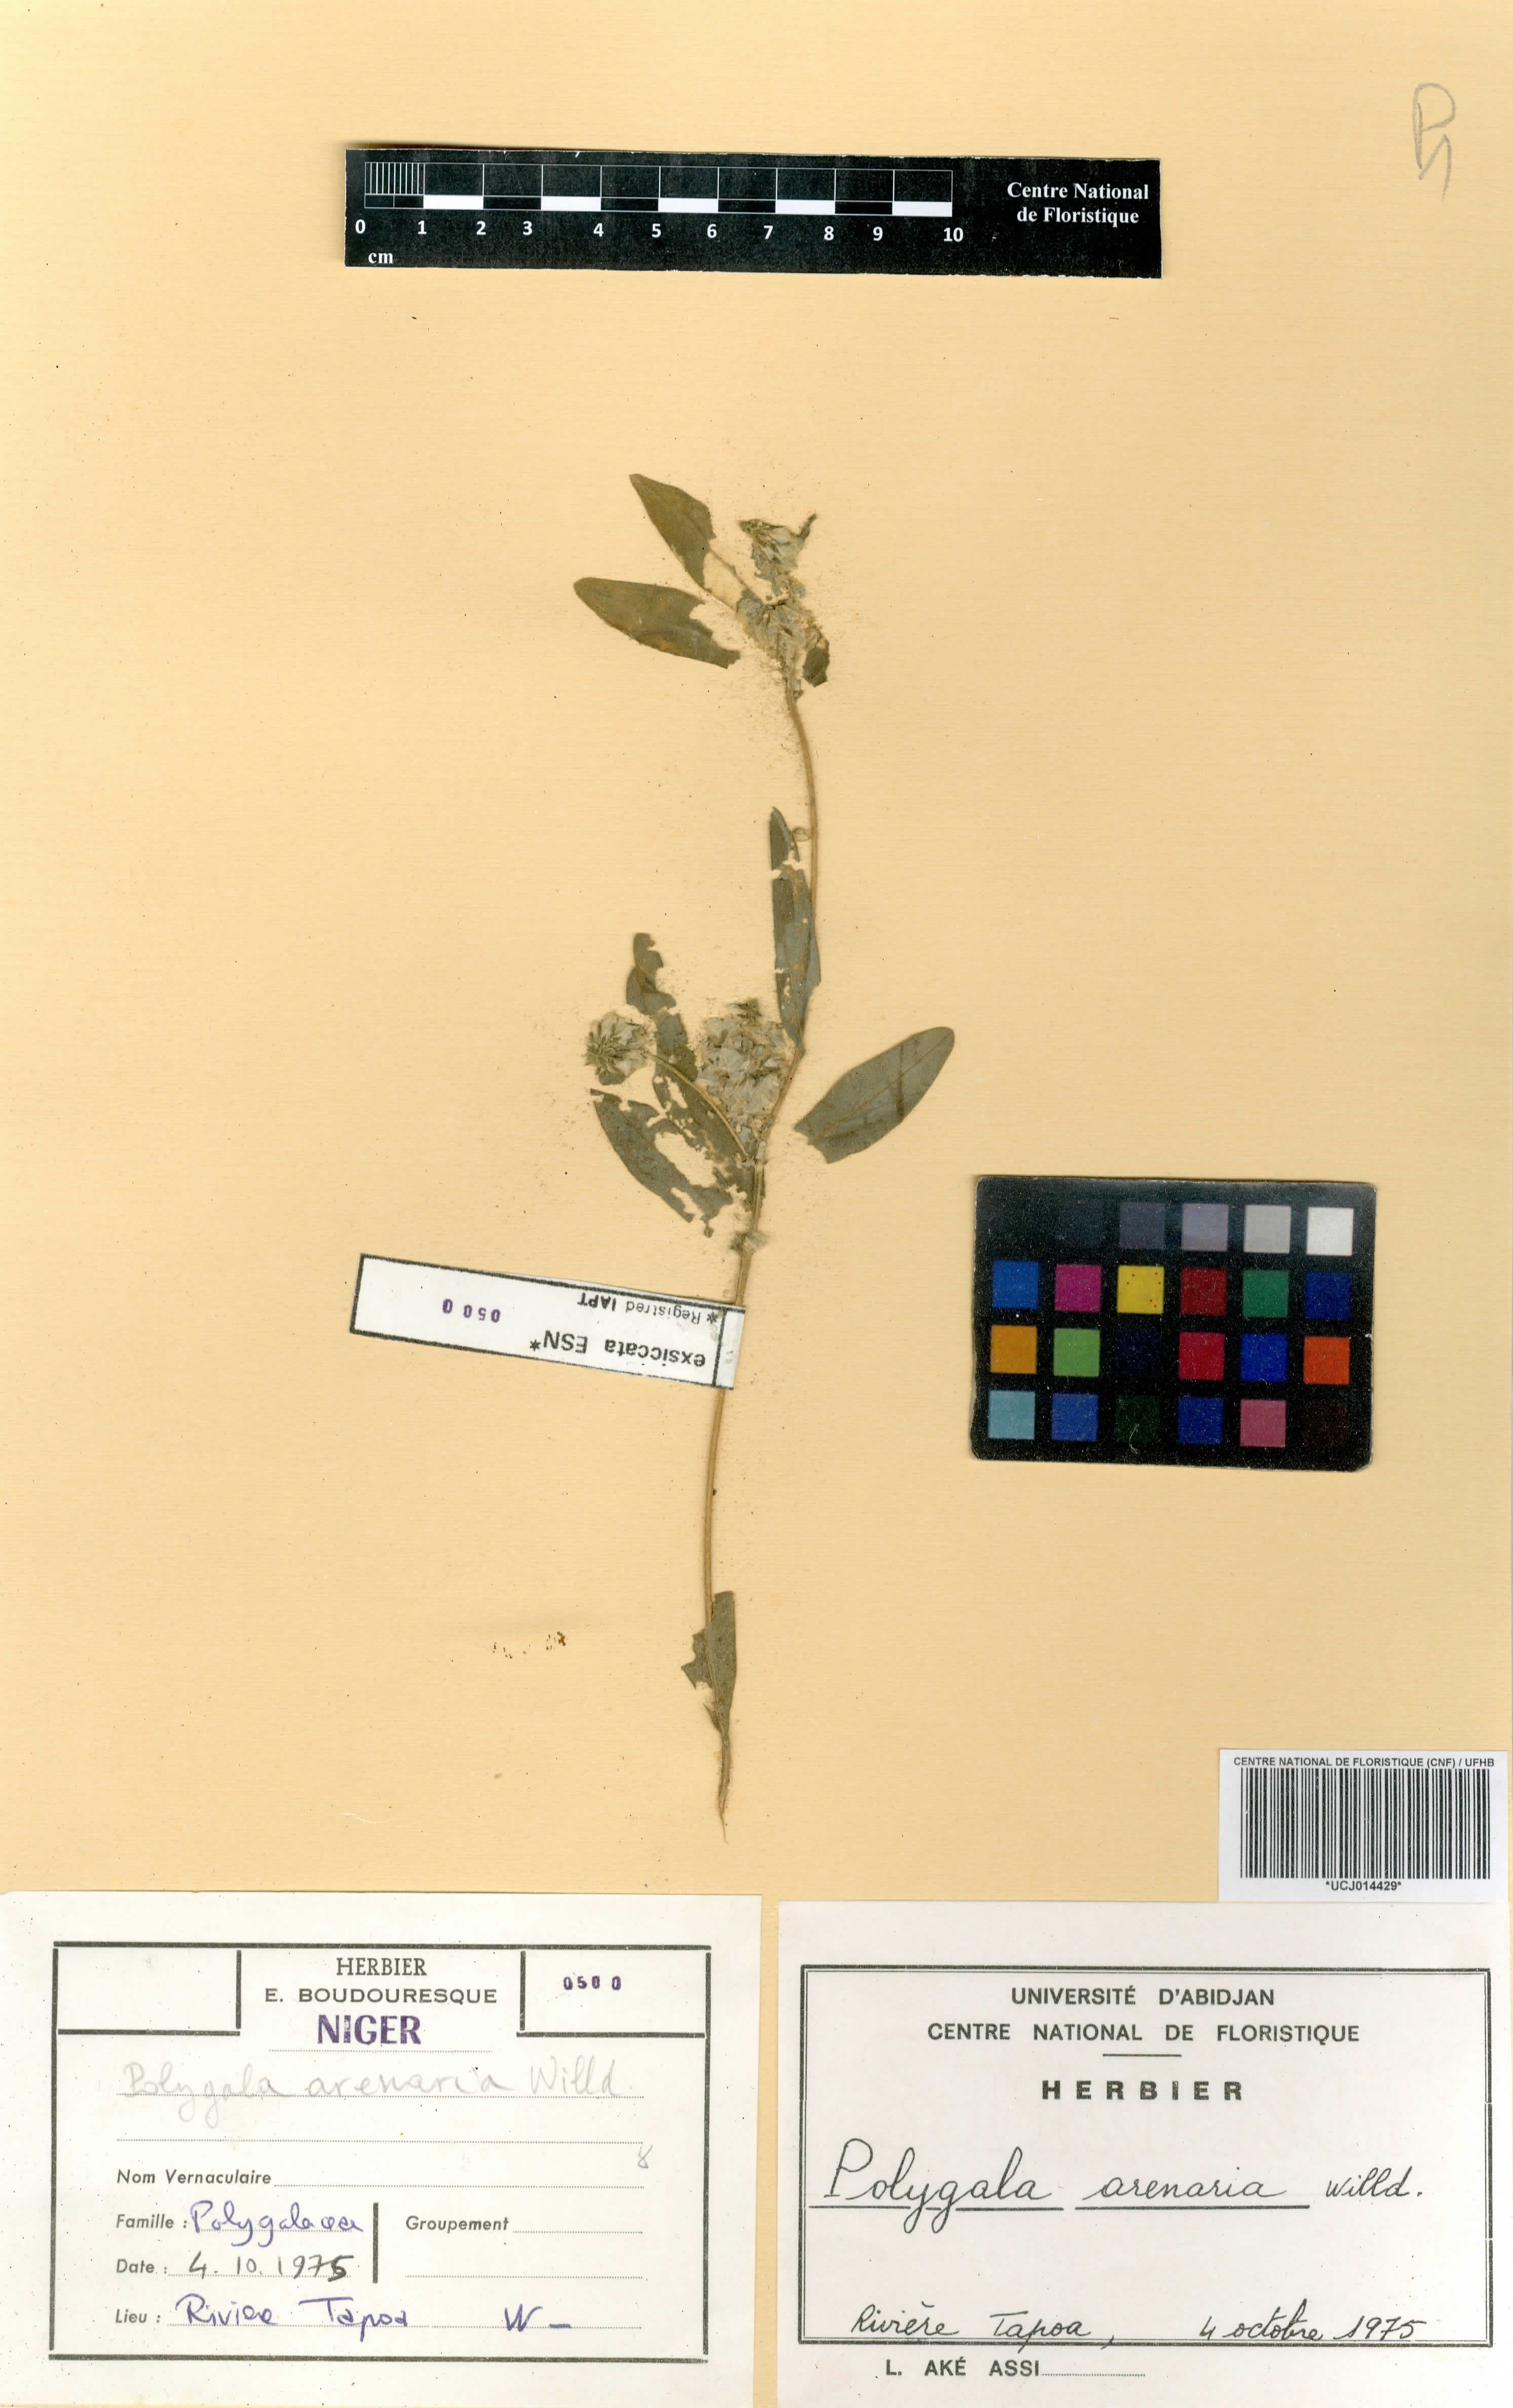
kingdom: Plantae
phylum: Tracheophyta
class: Magnoliopsida
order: Fabales
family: Polygalaceae
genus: Polygala
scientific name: Polygala arenaria
